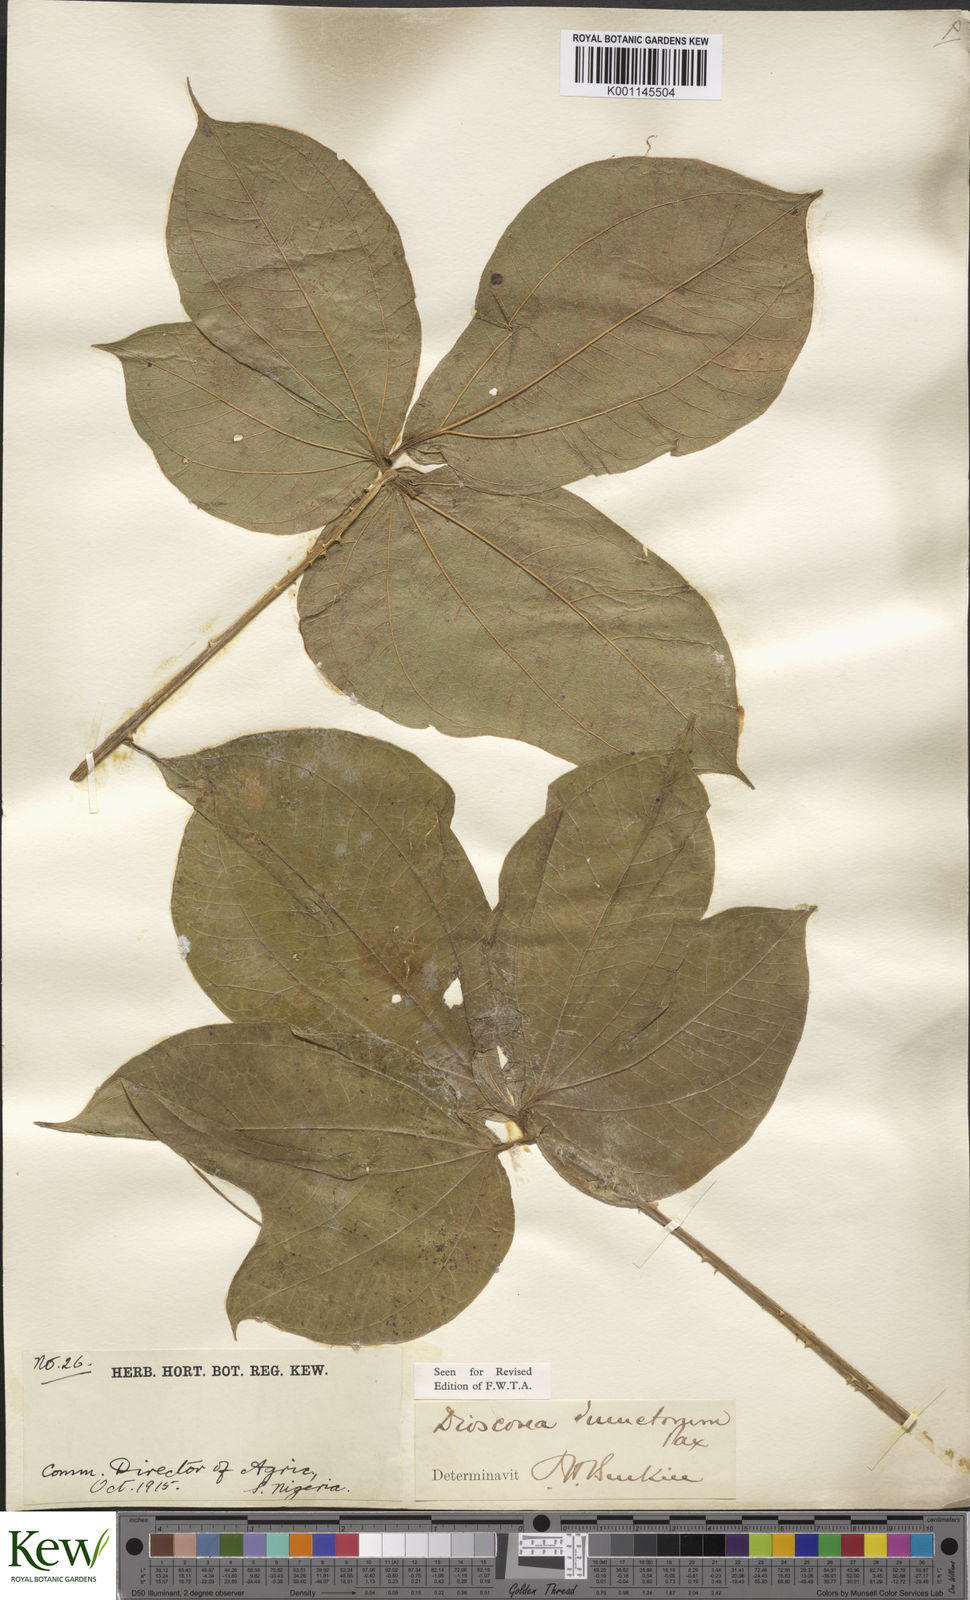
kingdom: Plantae
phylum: Tracheophyta
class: Liliopsida
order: Dioscoreales
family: Dioscoreaceae
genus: Dioscorea
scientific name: Dioscorea dumetorum
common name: African bitter yam
